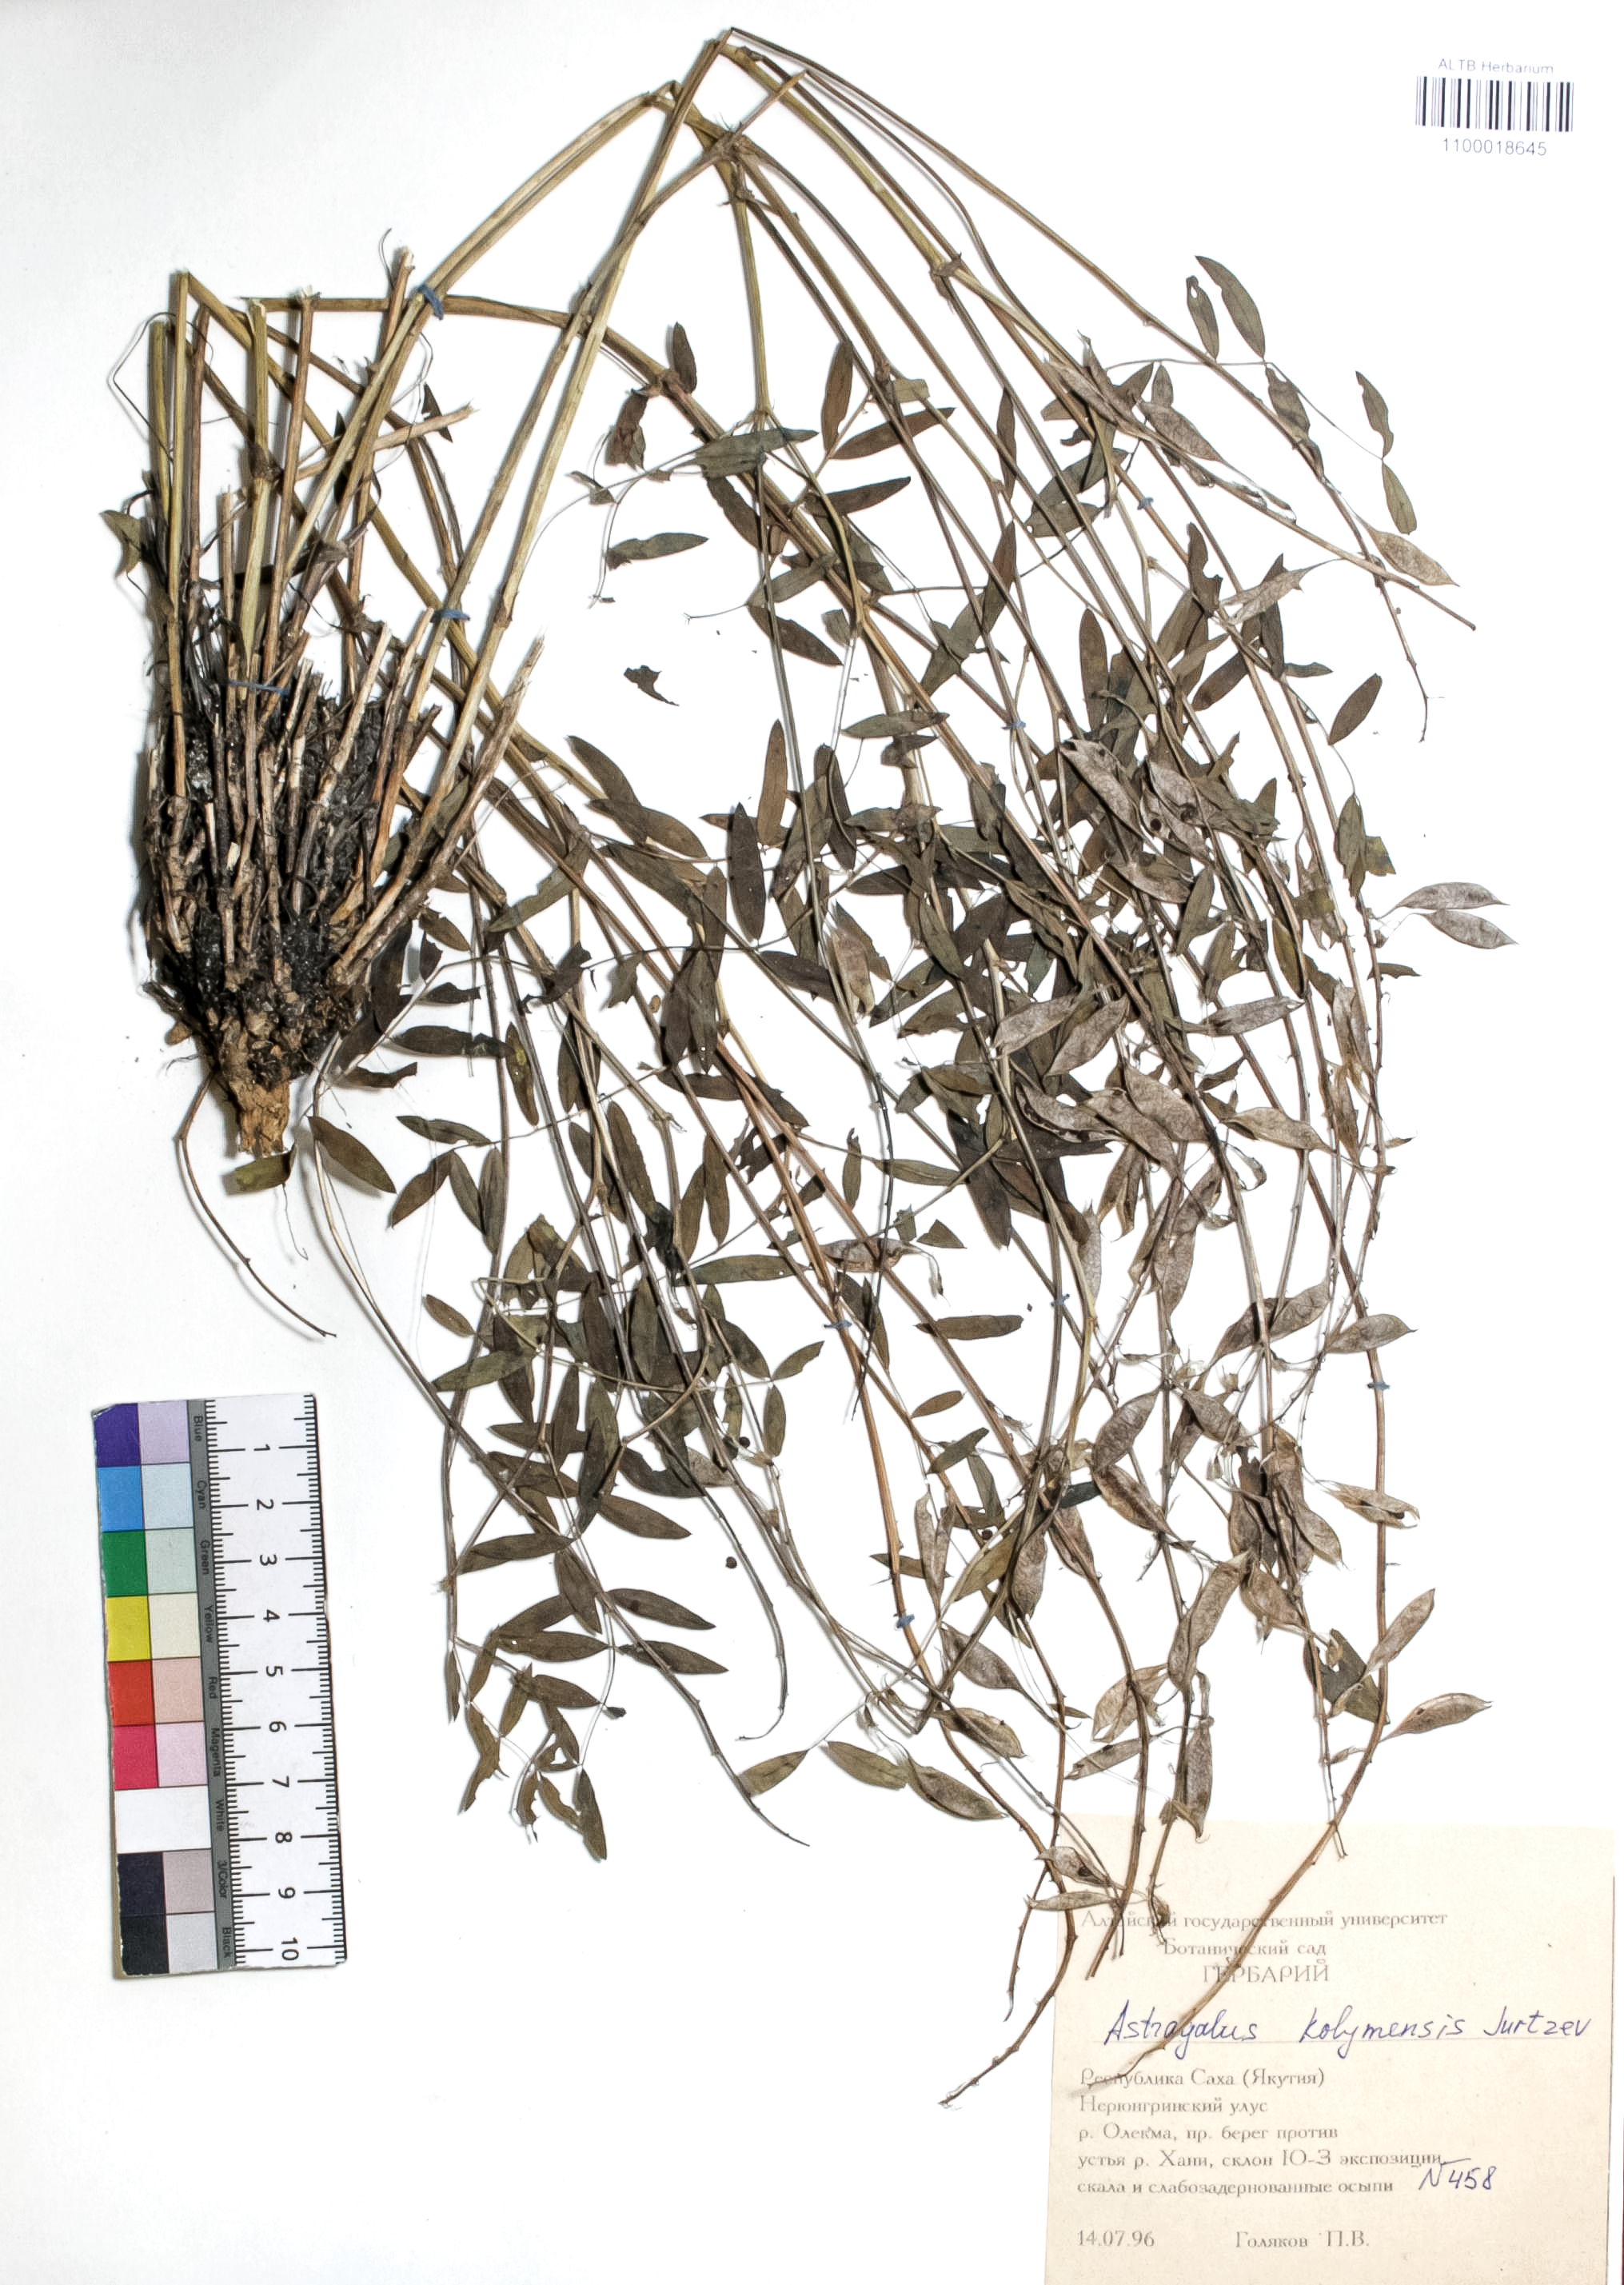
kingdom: Plantae
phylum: Tracheophyta
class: Magnoliopsida
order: Fabales
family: Fabaceae
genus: Astragalus
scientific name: Astragalus kolymensis
